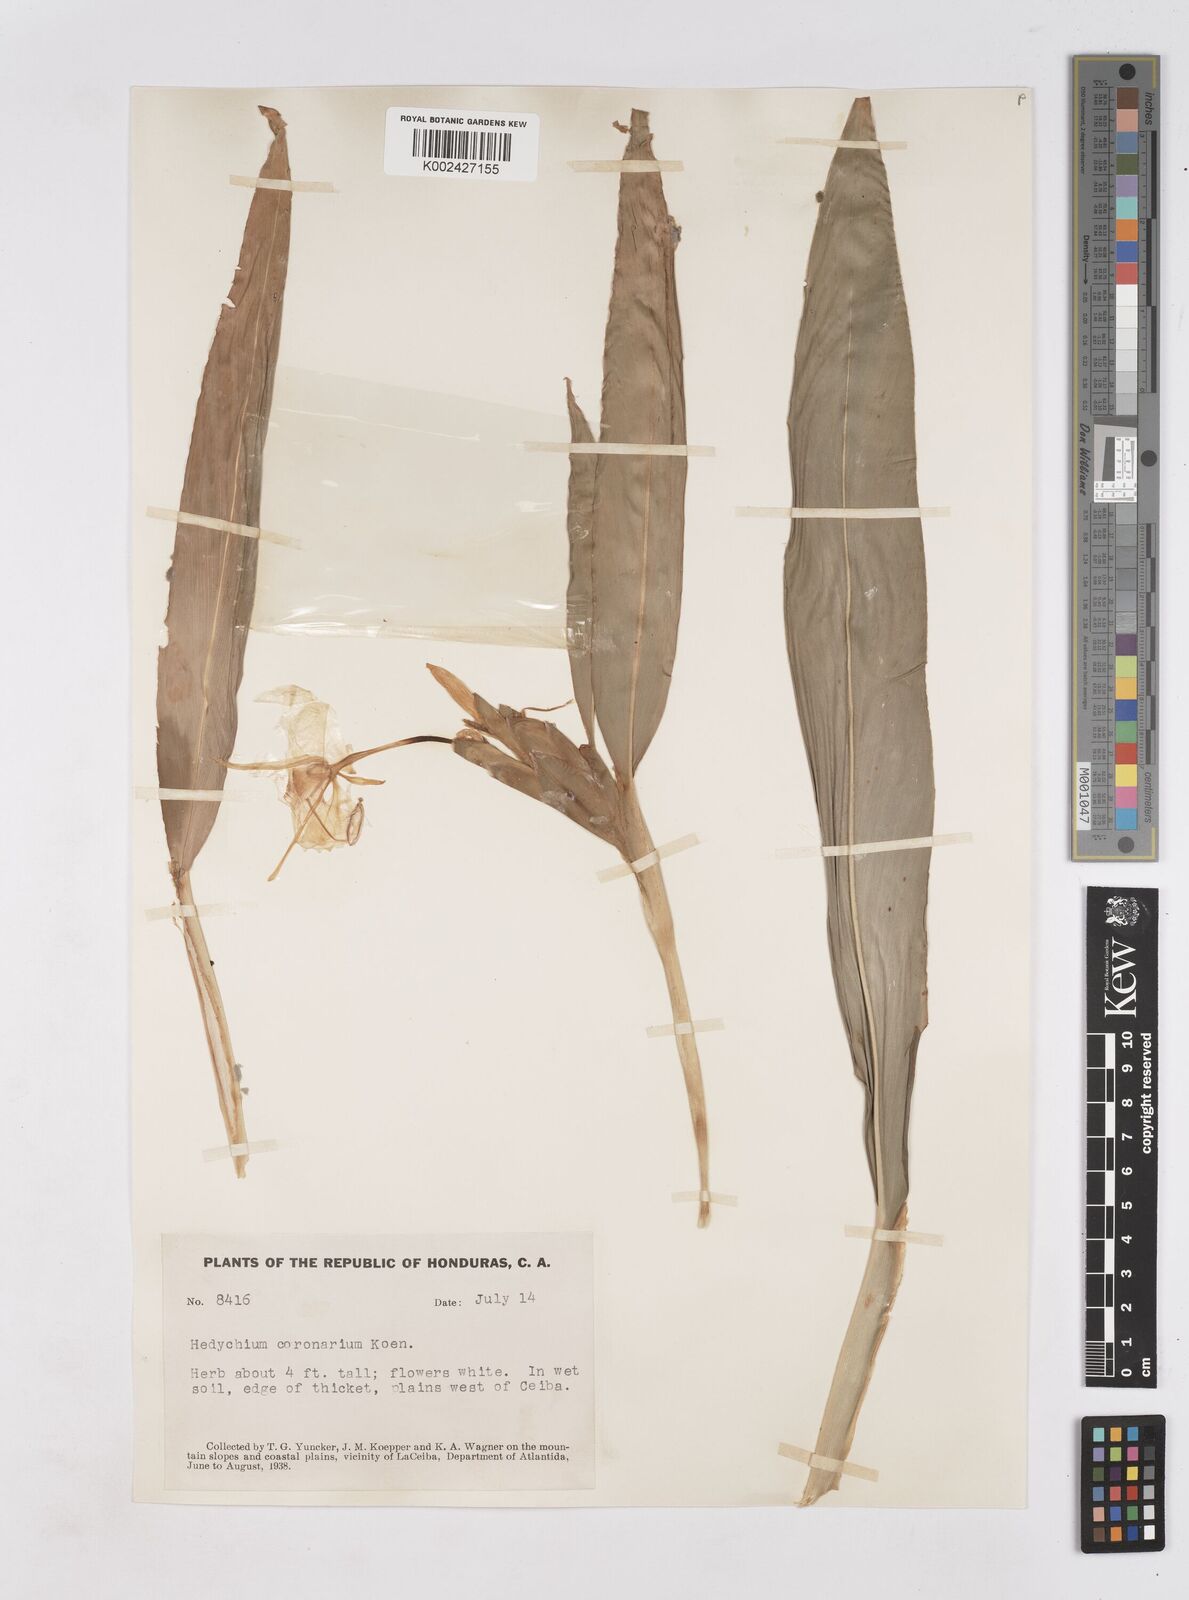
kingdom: Plantae
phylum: Tracheophyta
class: Liliopsida
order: Zingiberales
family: Zingiberaceae
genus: Hedychium
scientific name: Hedychium coronarium
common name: White garland-lily
